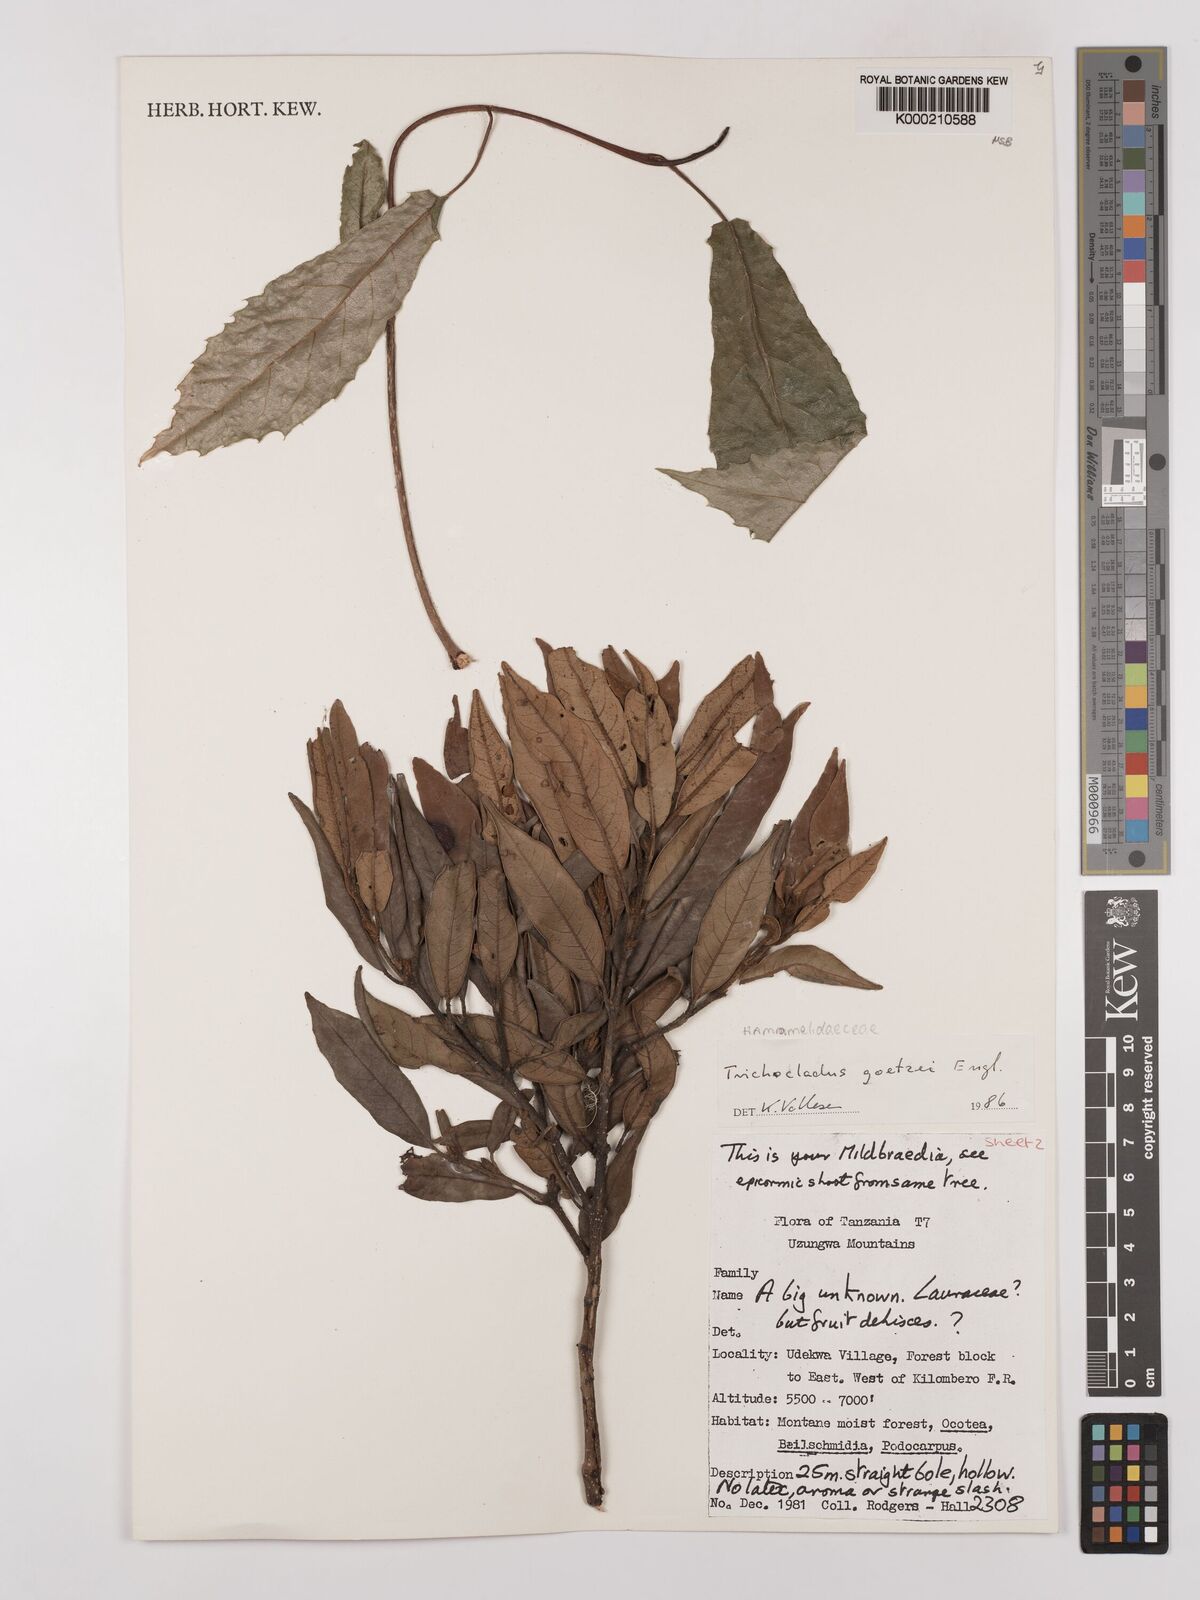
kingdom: Plantae
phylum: Tracheophyta
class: Magnoliopsida
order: Saxifragales
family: Hamamelidaceae
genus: Trichocladus
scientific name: Trichocladus goetzei
